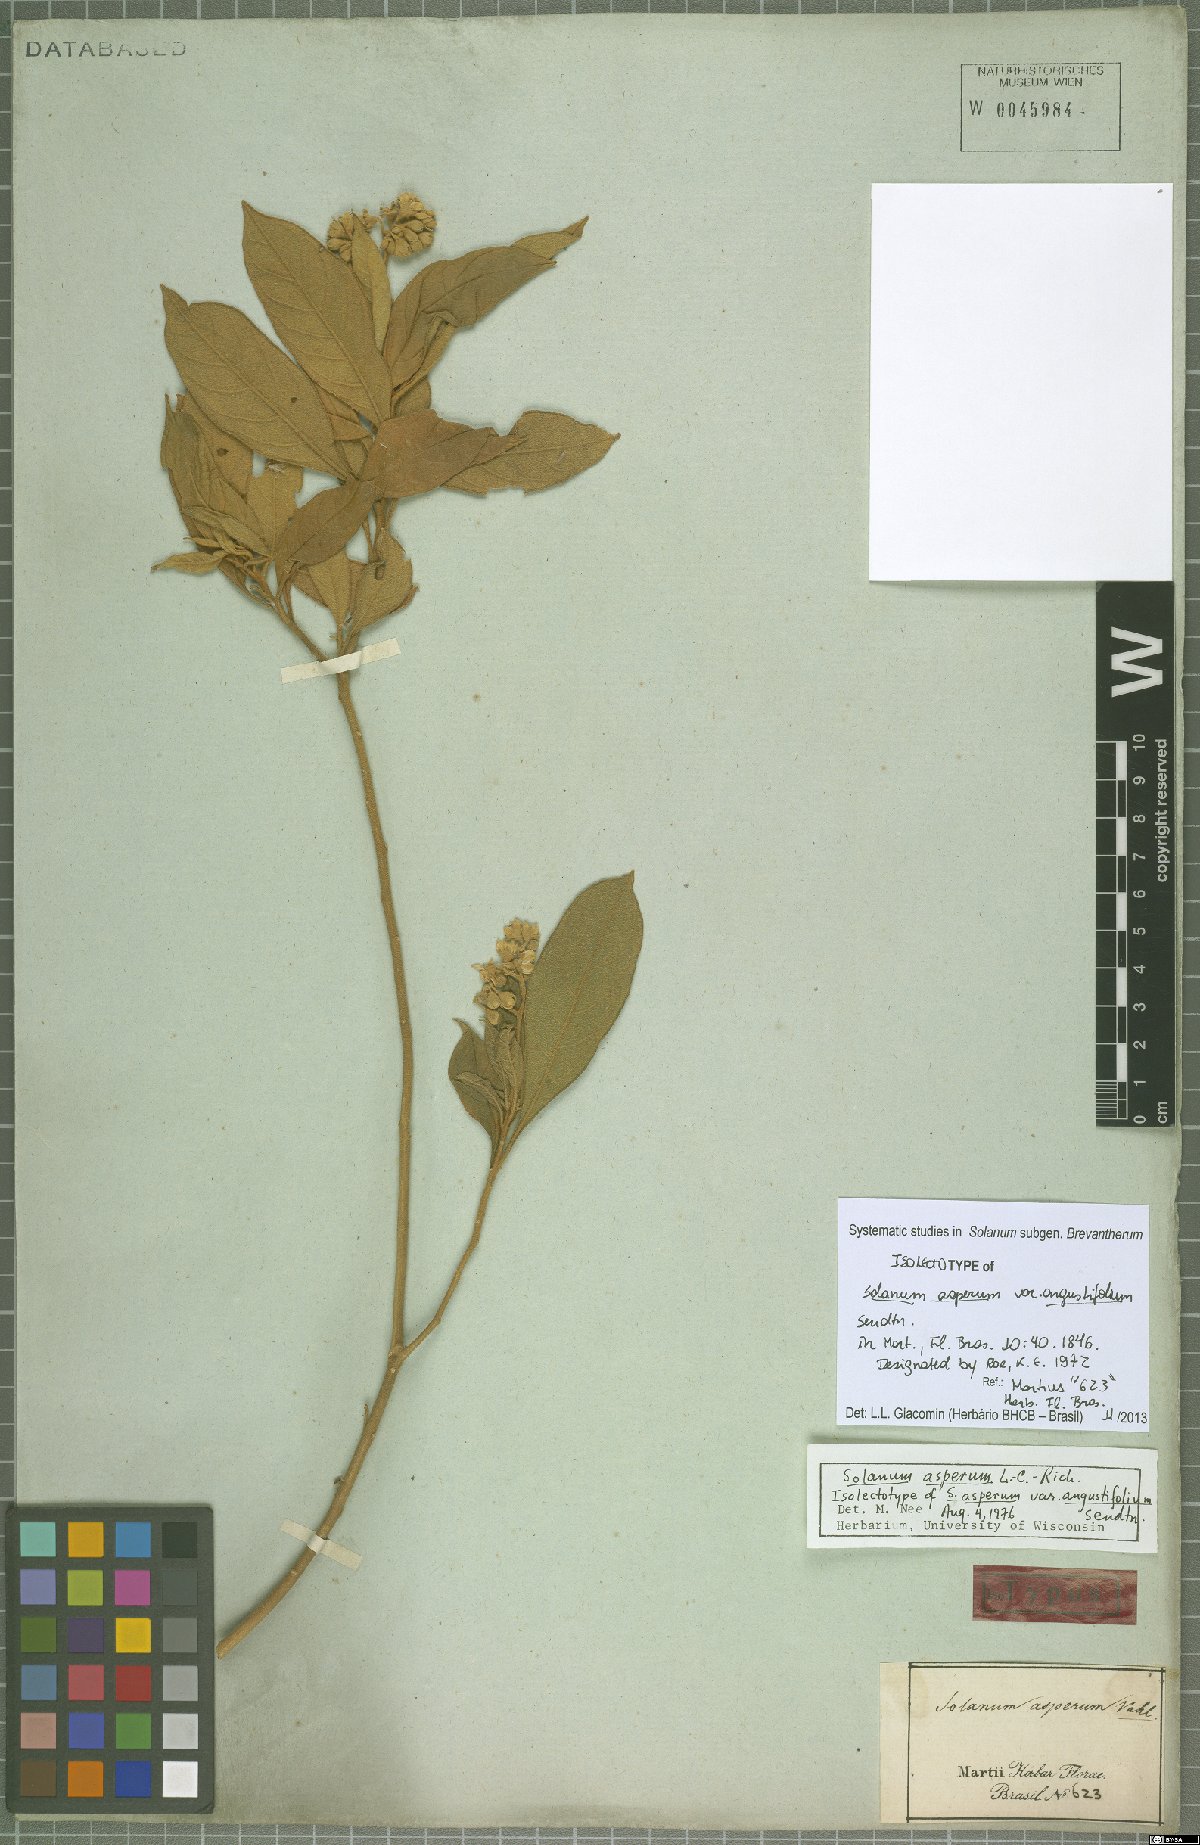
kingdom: Plantae
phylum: Tracheophyta
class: Magnoliopsida
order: Solanales
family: Solanaceae
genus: Solanum
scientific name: Solanum asperum
